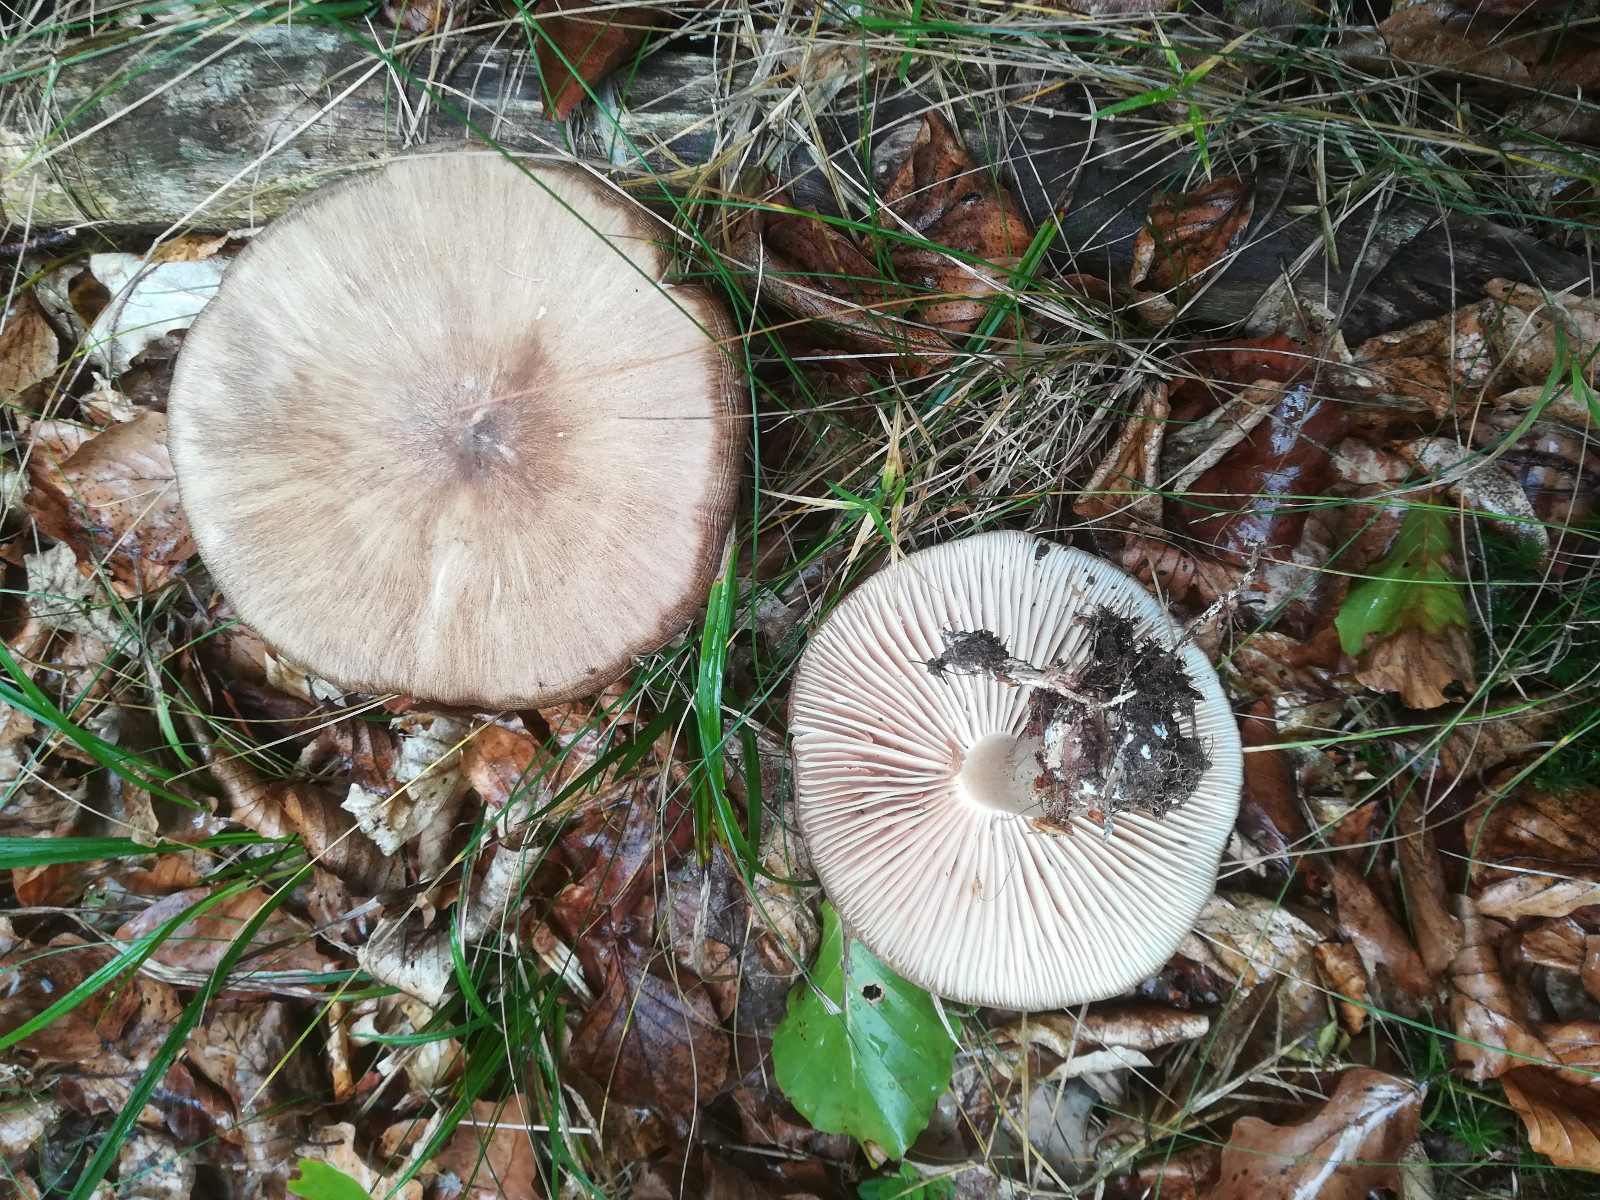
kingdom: Fungi
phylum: Basidiomycota
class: Agaricomycetes
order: Agaricales
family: Tricholomataceae
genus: Megacollybia
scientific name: Megacollybia platyphylla
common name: bredbladet væbnerhat
